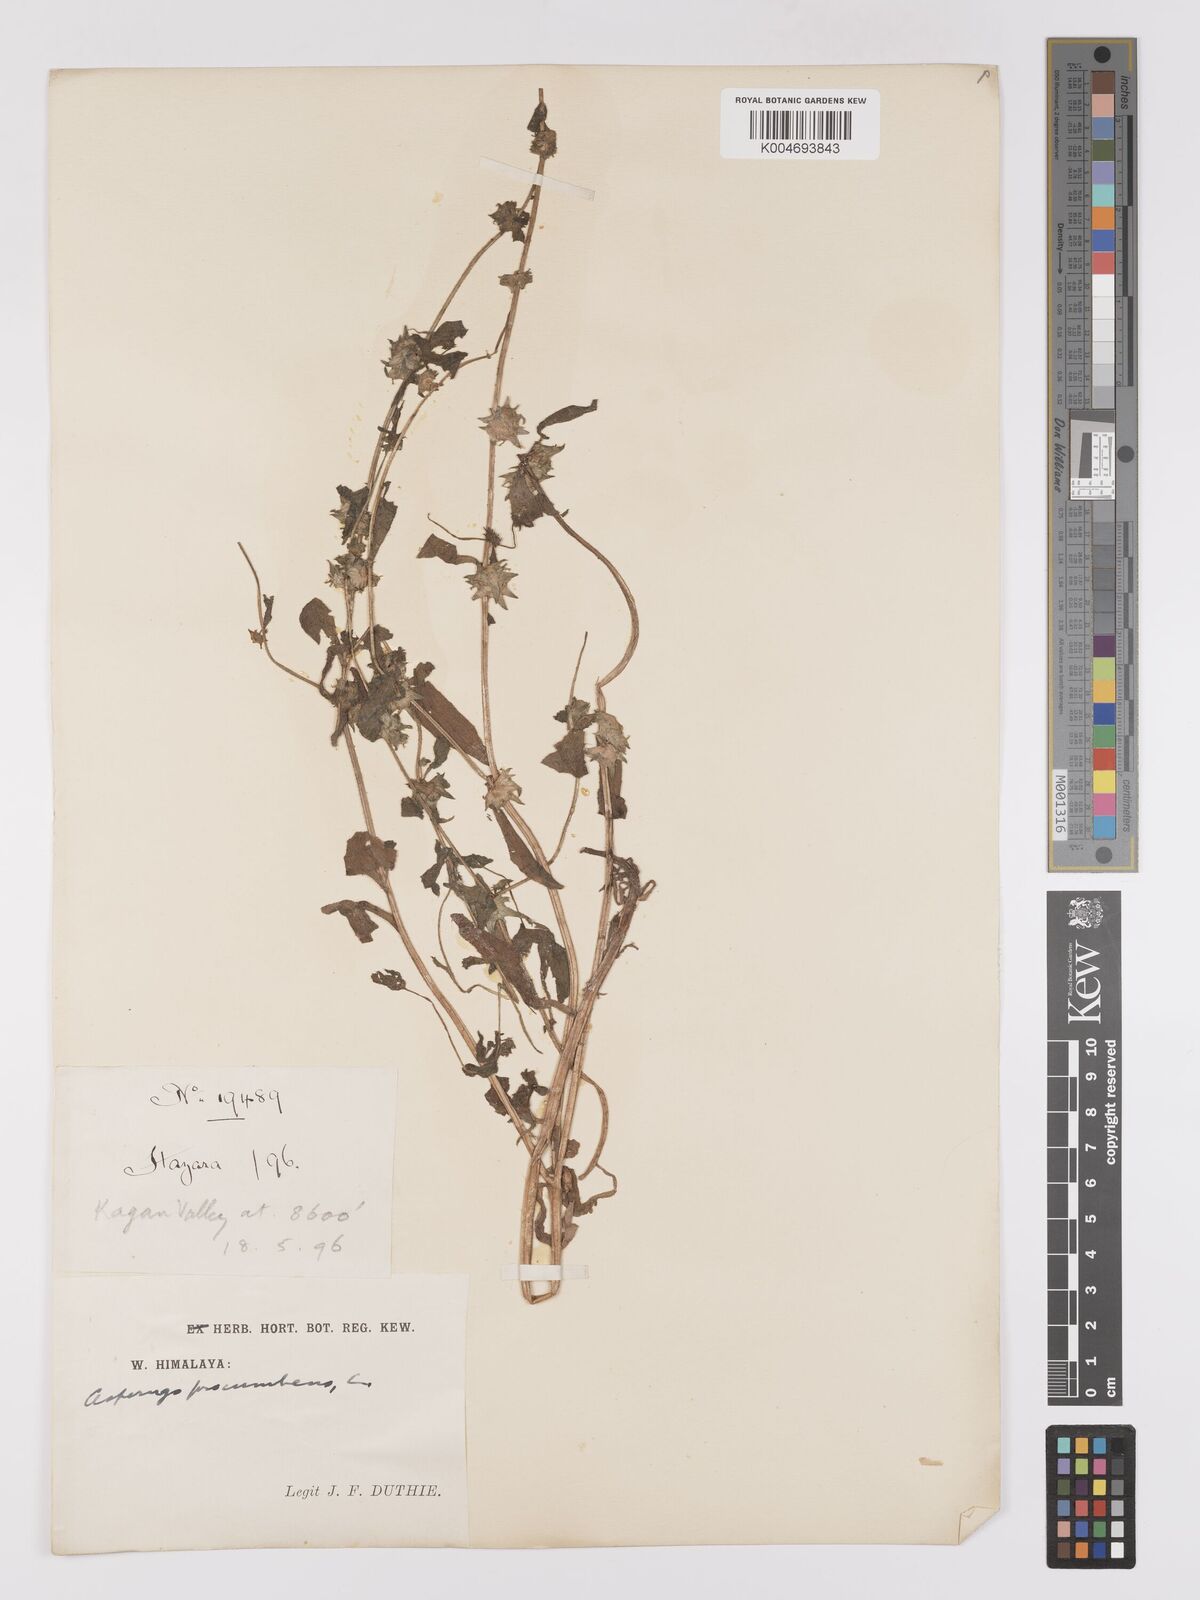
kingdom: Plantae
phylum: Tracheophyta
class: Magnoliopsida
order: Boraginales
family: Boraginaceae
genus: Asperugo
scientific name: Asperugo procumbens
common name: Madwort
